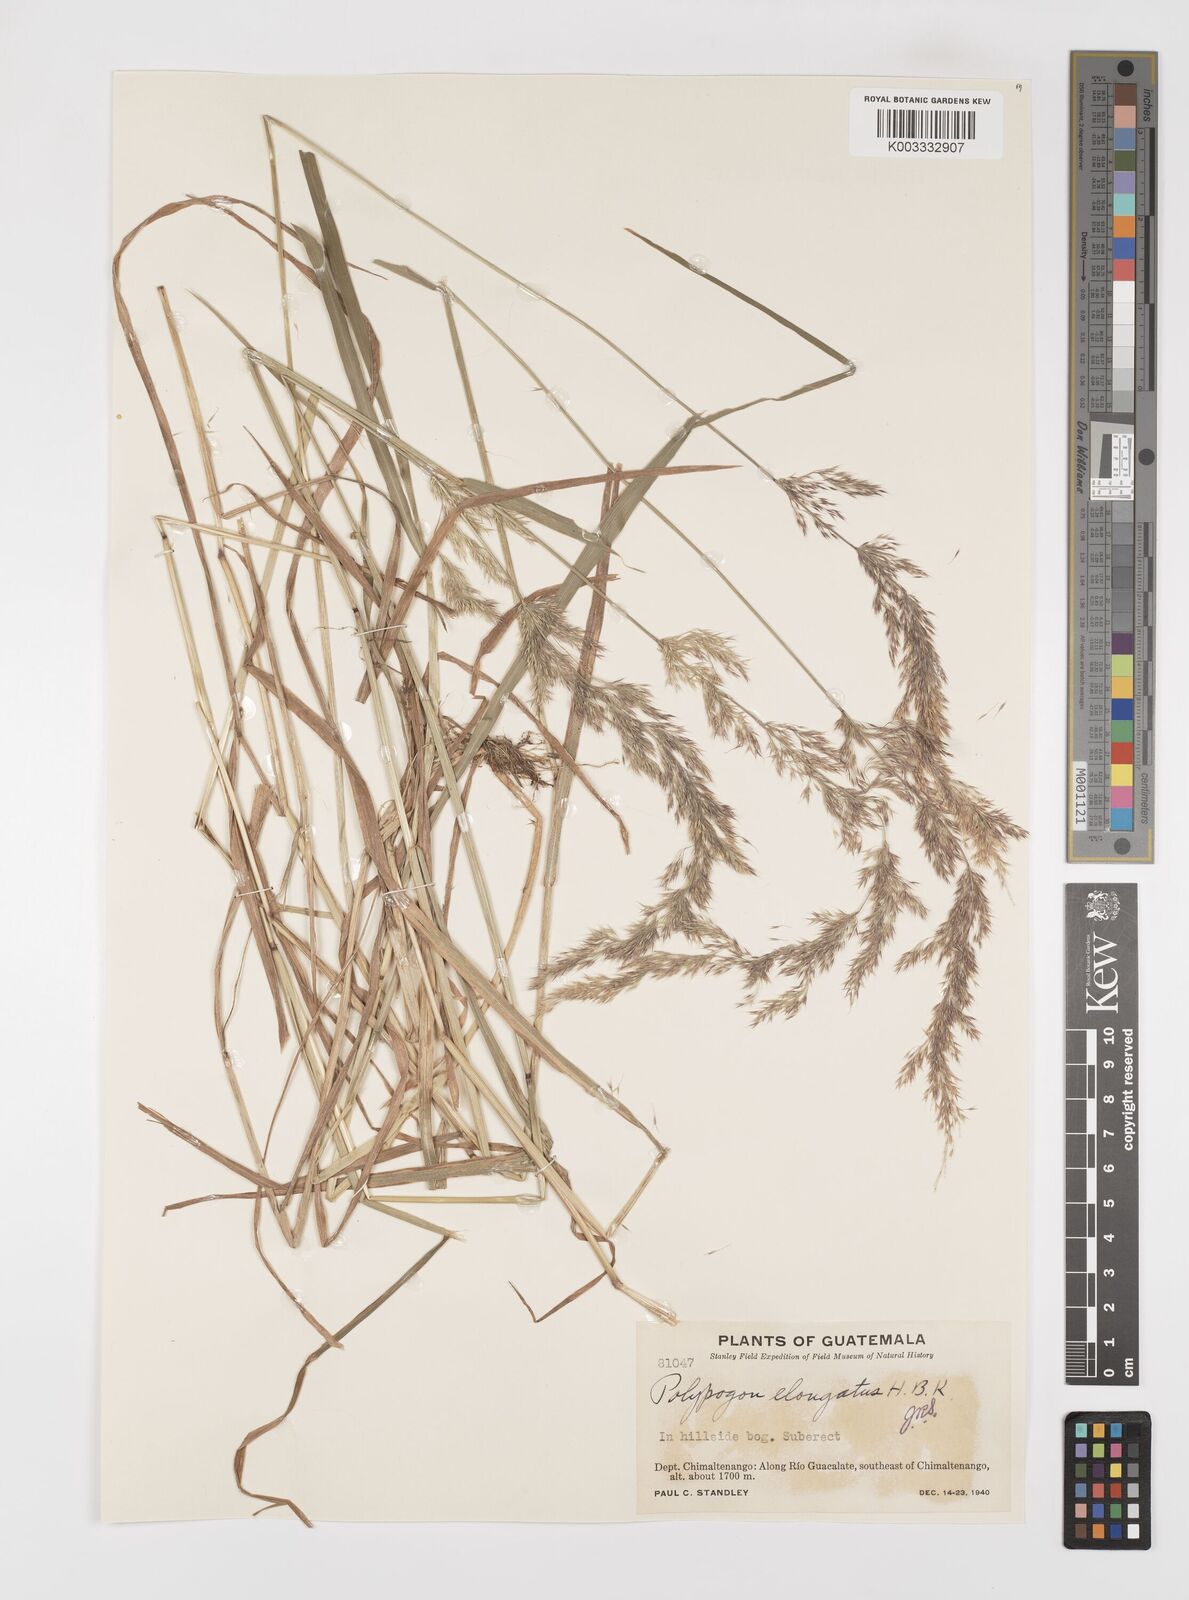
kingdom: Plantae
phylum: Tracheophyta
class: Liliopsida
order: Poales
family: Poaceae
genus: Polypogon
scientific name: Polypogon elongatus
